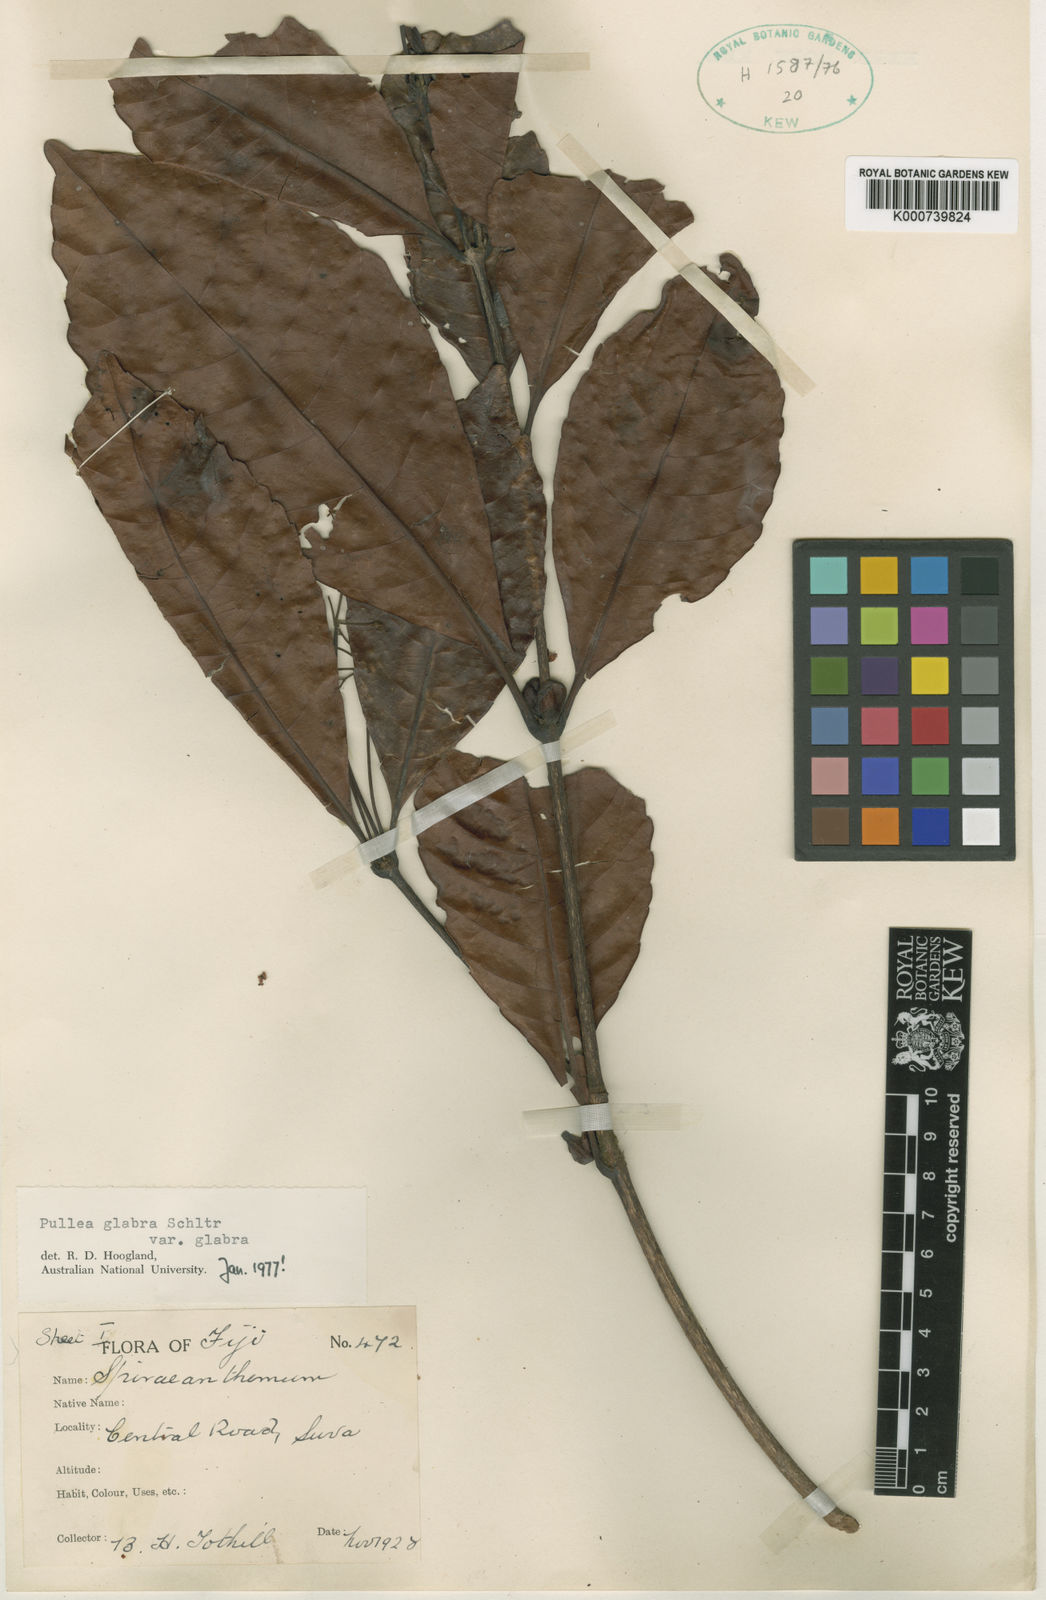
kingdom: Plantae
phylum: Tracheophyta
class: Magnoliopsida
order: Oxalidales
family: Cunoniaceae
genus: Pullea
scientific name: Pullea glabra
